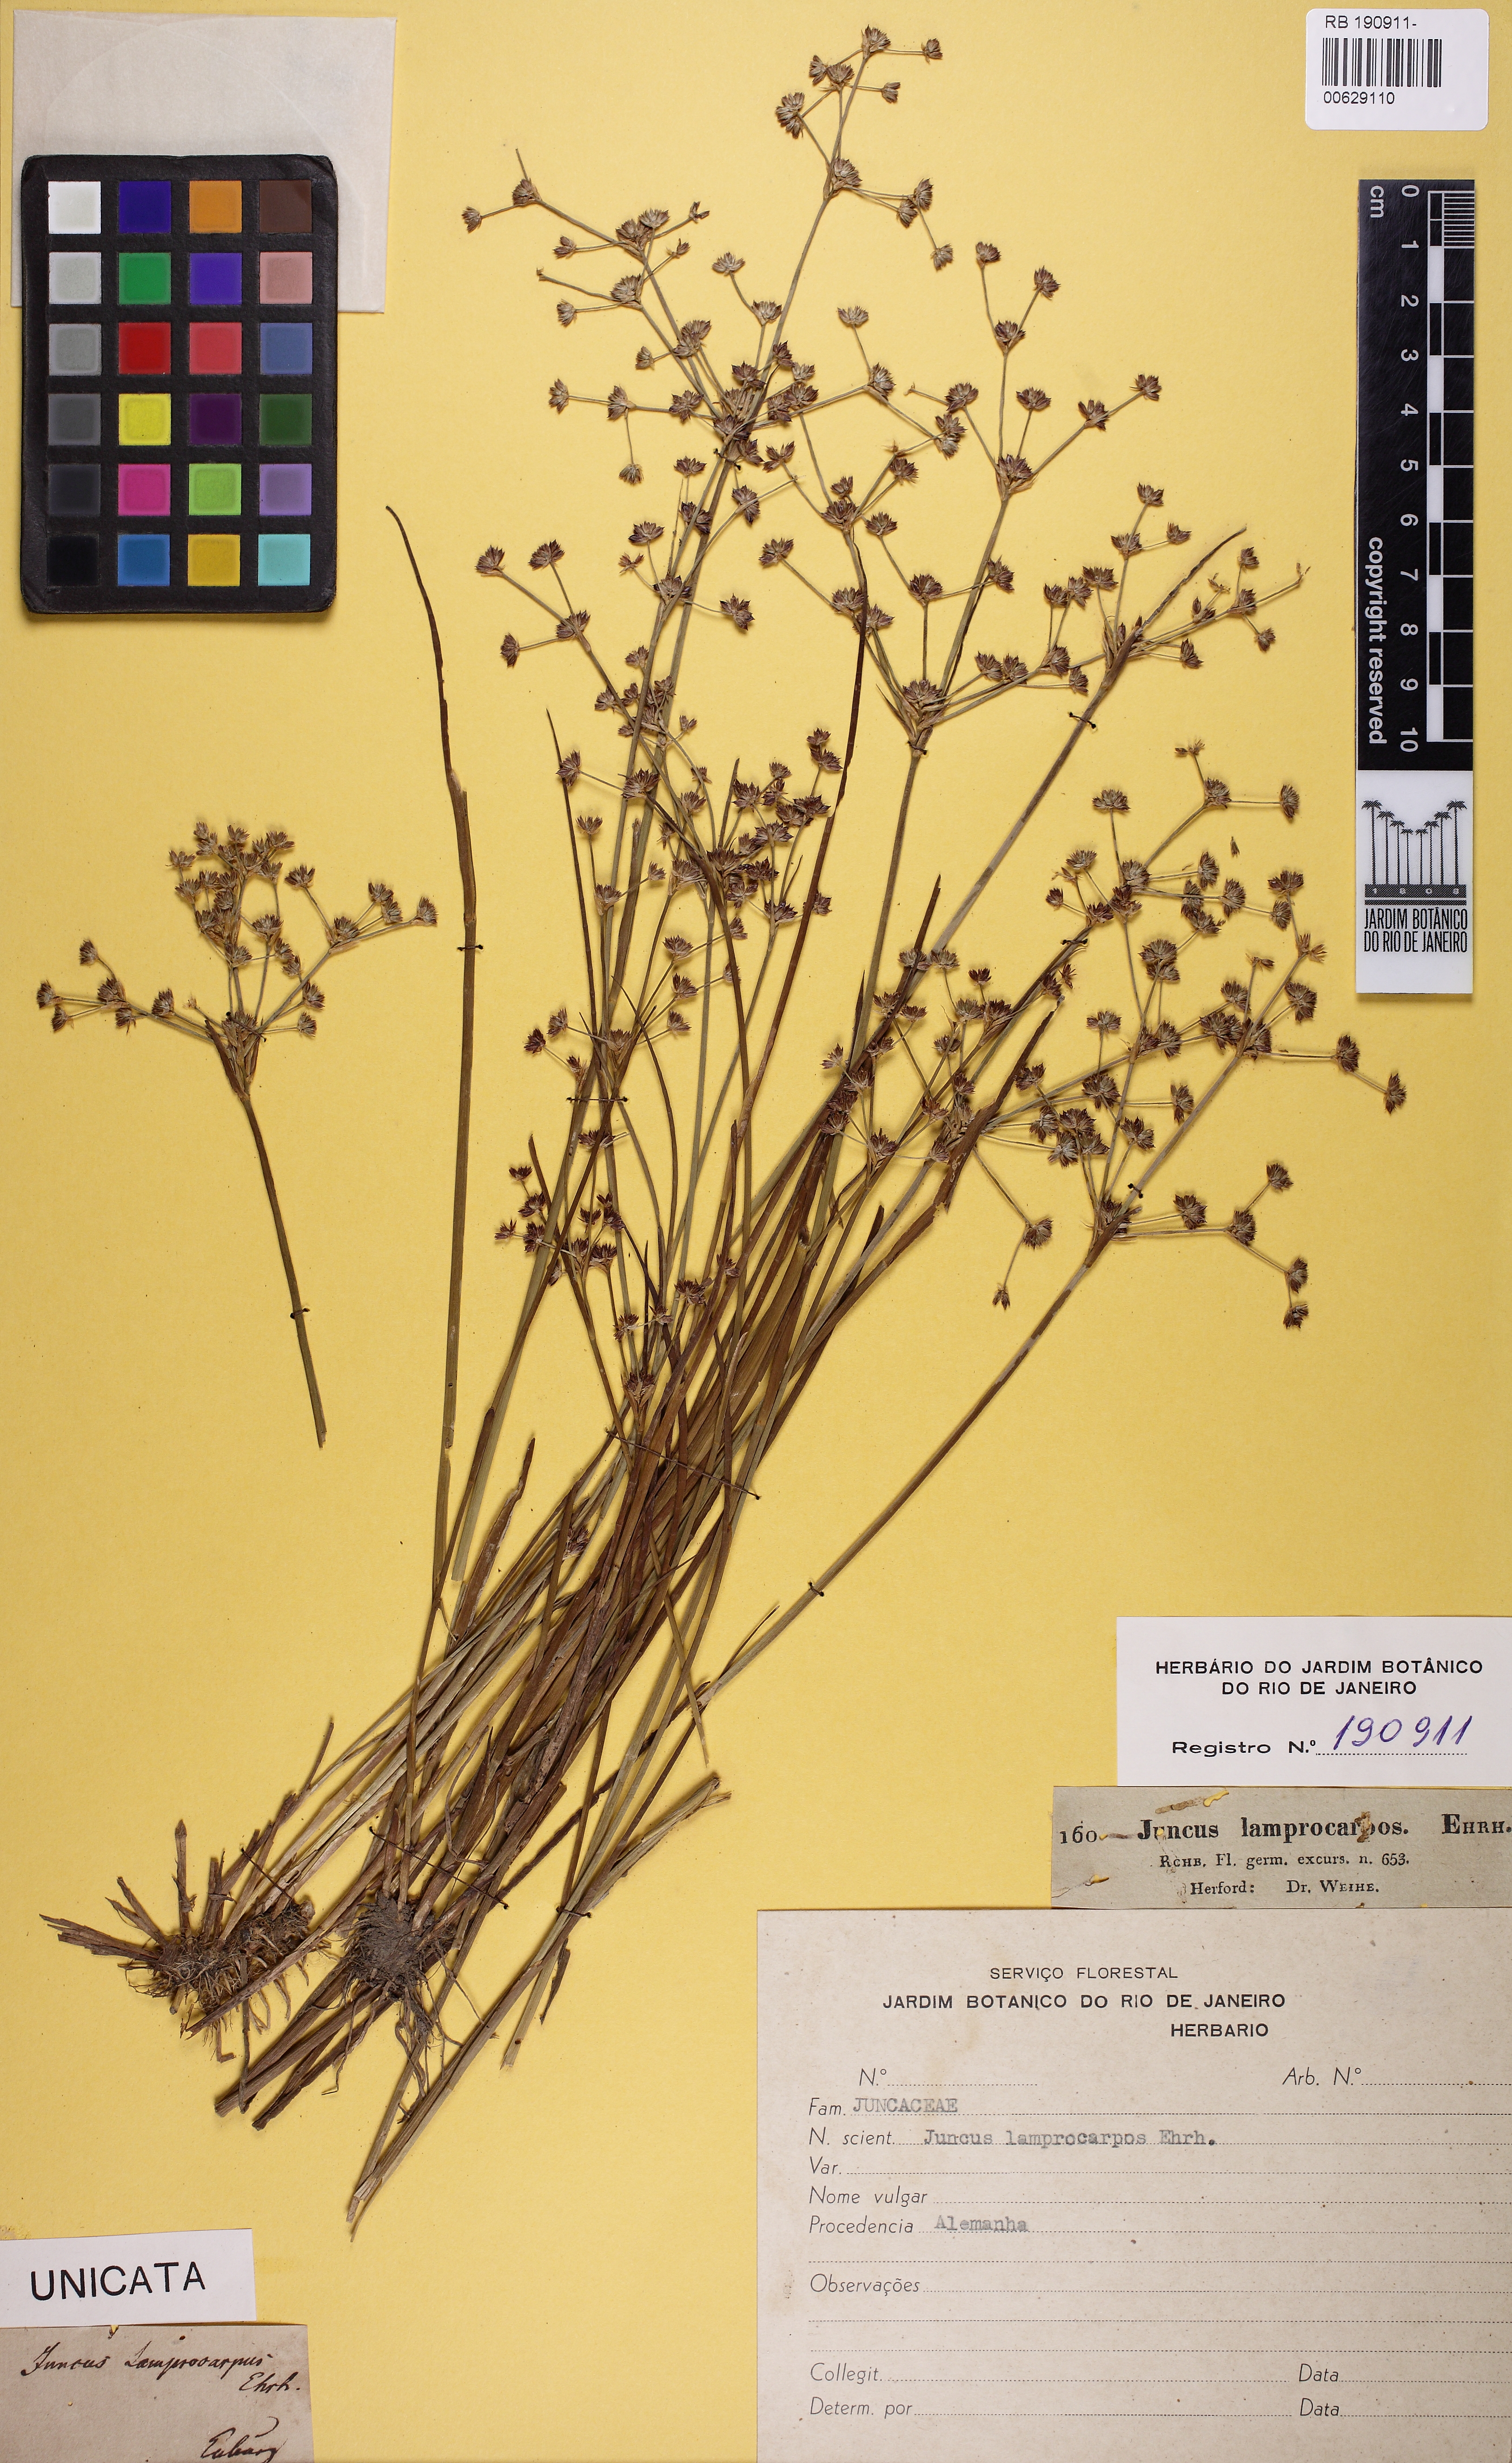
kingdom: Plantae
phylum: Tracheophyta
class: Liliopsida
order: Poales
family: Juncaceae
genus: Juncus
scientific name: Juncus articulatus
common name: Jointed rush
